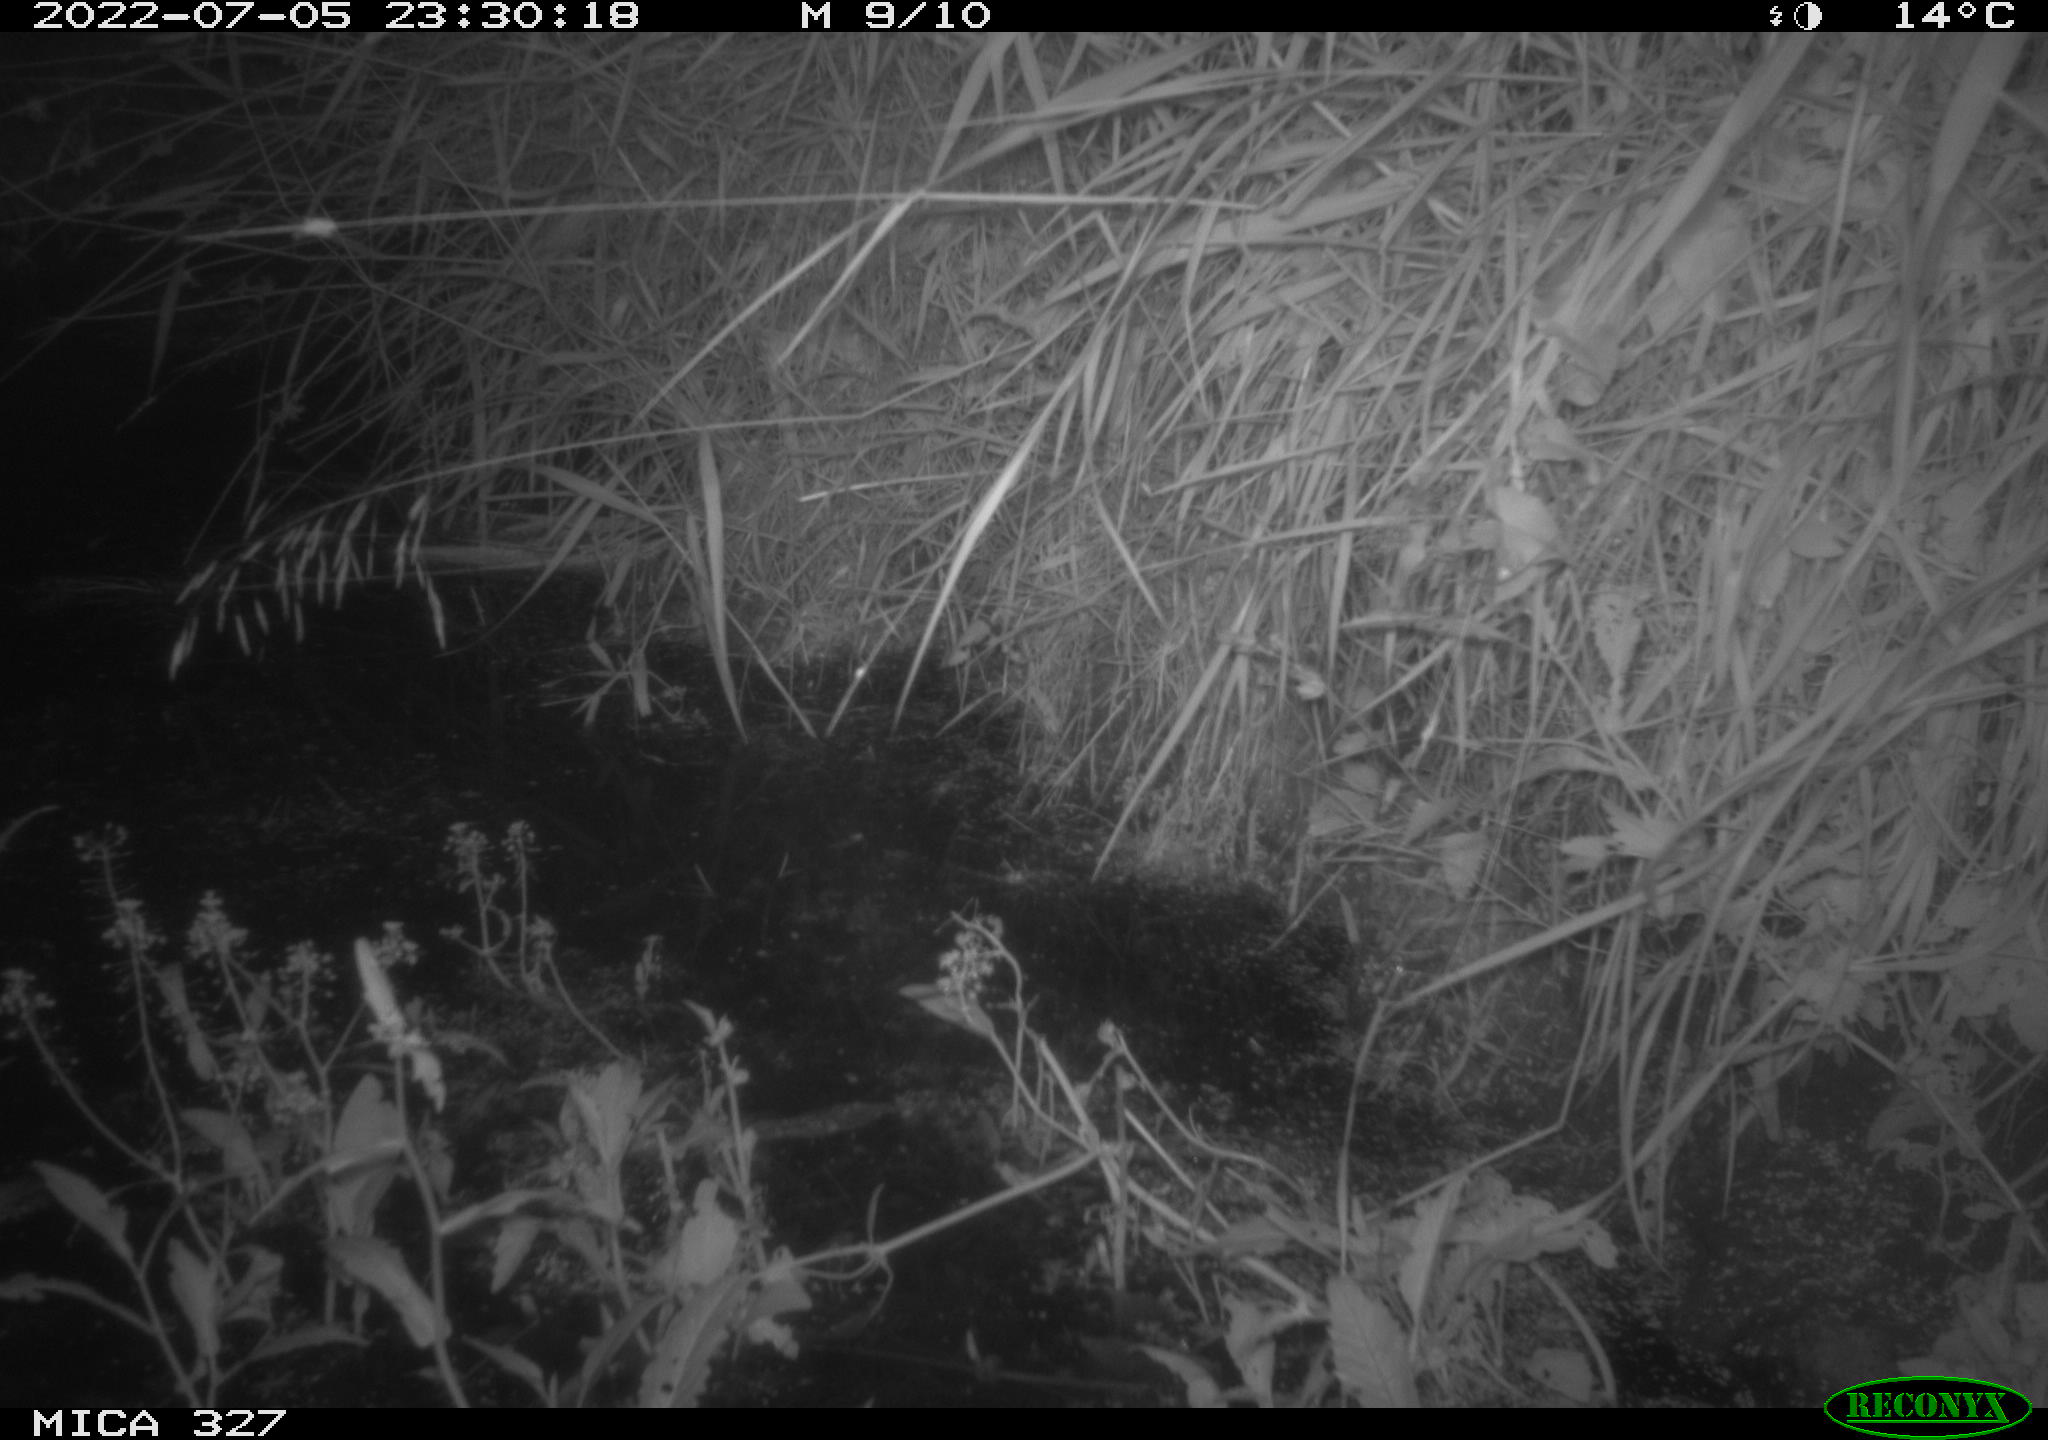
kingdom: Animalia
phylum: Chordata
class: Mammalia
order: Rodentia
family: Muridae
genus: Rattus
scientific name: Rattus norvegicus
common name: Brown rat
